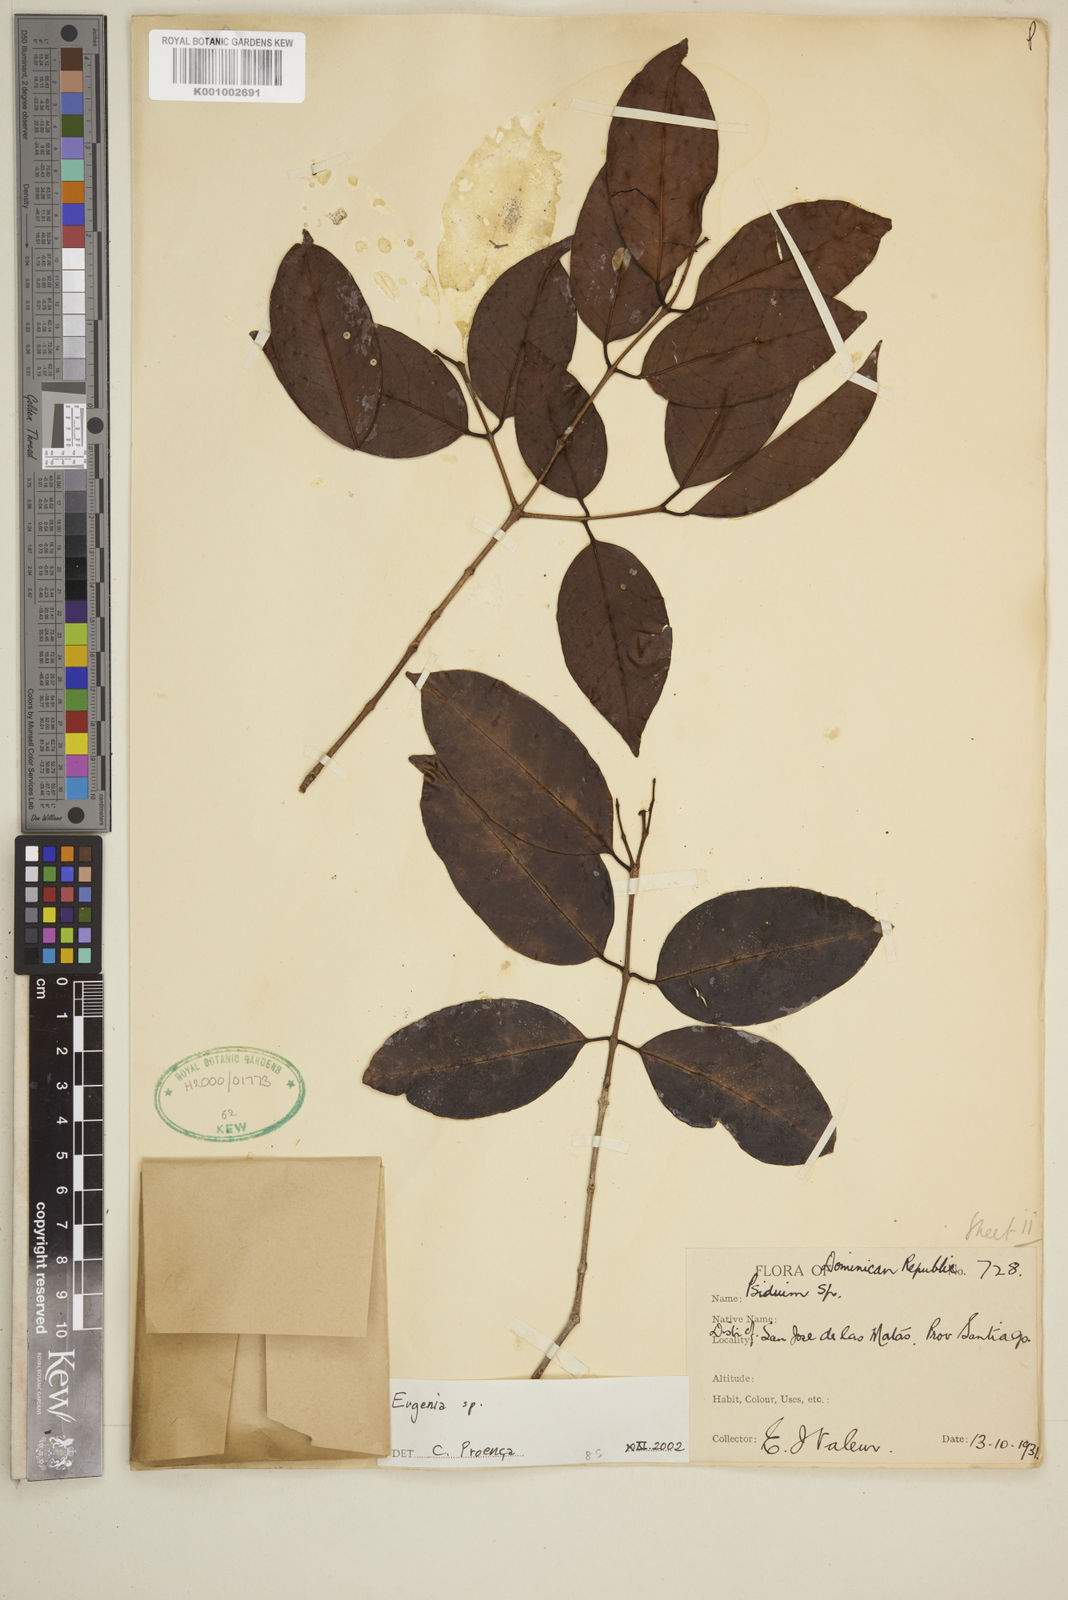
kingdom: Plantae
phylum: Tracheophyta
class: Magnoliopsida
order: Myrtales
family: Myrtaceae
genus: Eugenia
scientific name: Eugenia
